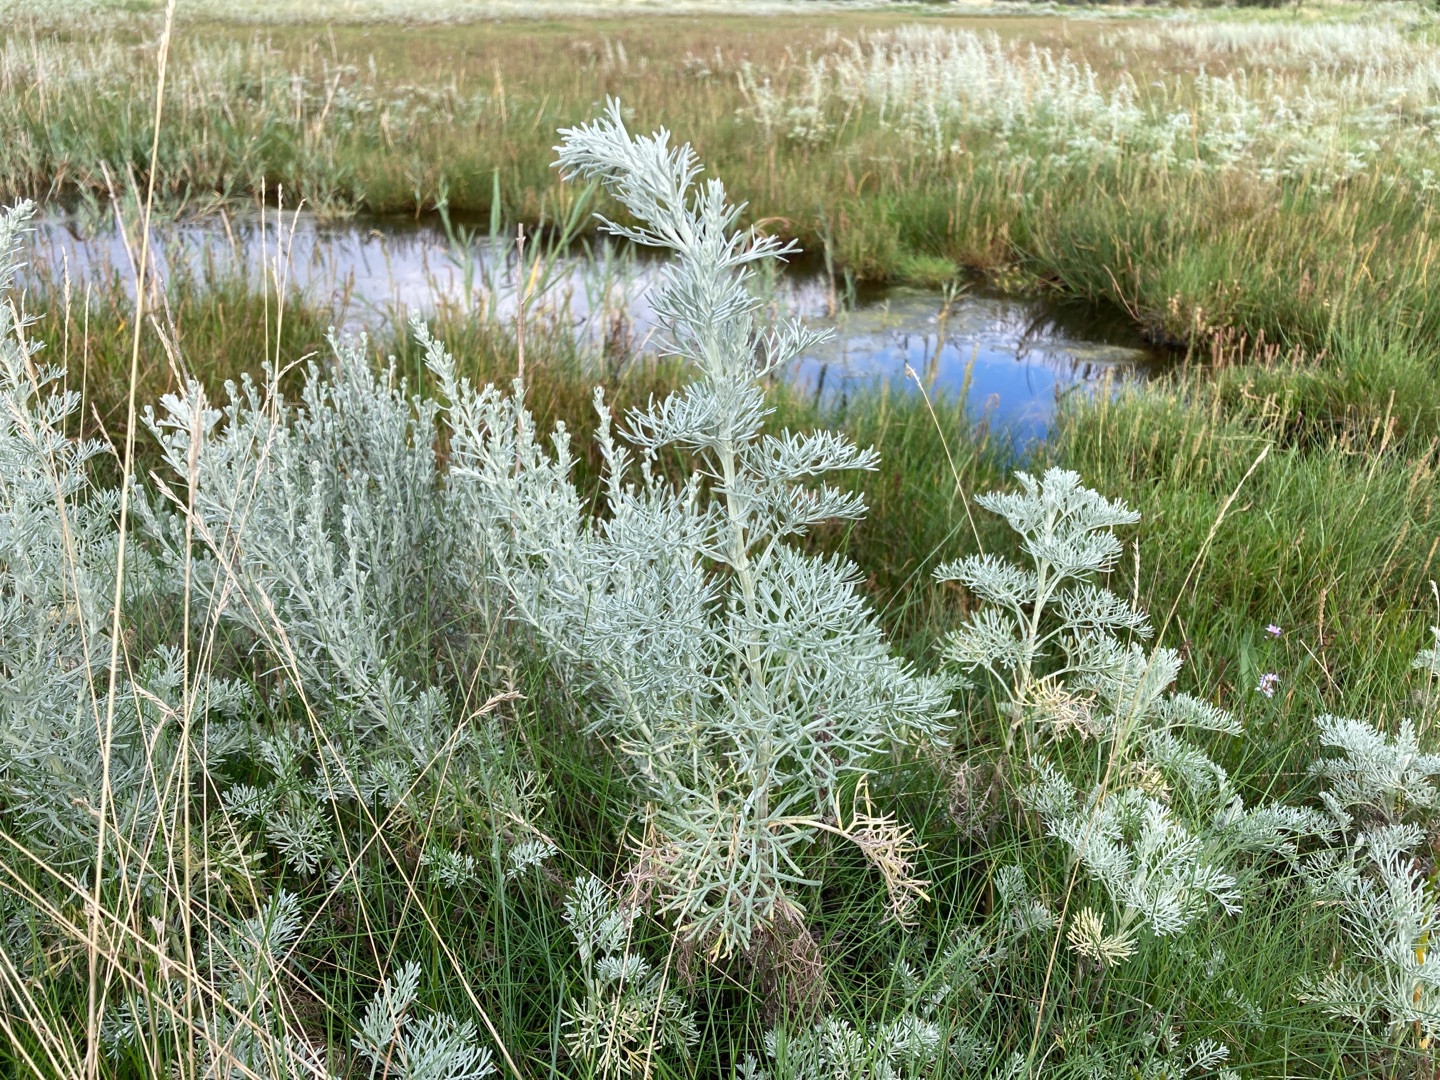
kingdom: Plantae
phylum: Tracheophyta
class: Magnoliopsida
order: Asterales
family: Asteraceae
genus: Artemisia
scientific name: Artemisia maritima
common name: Strandmalurt
